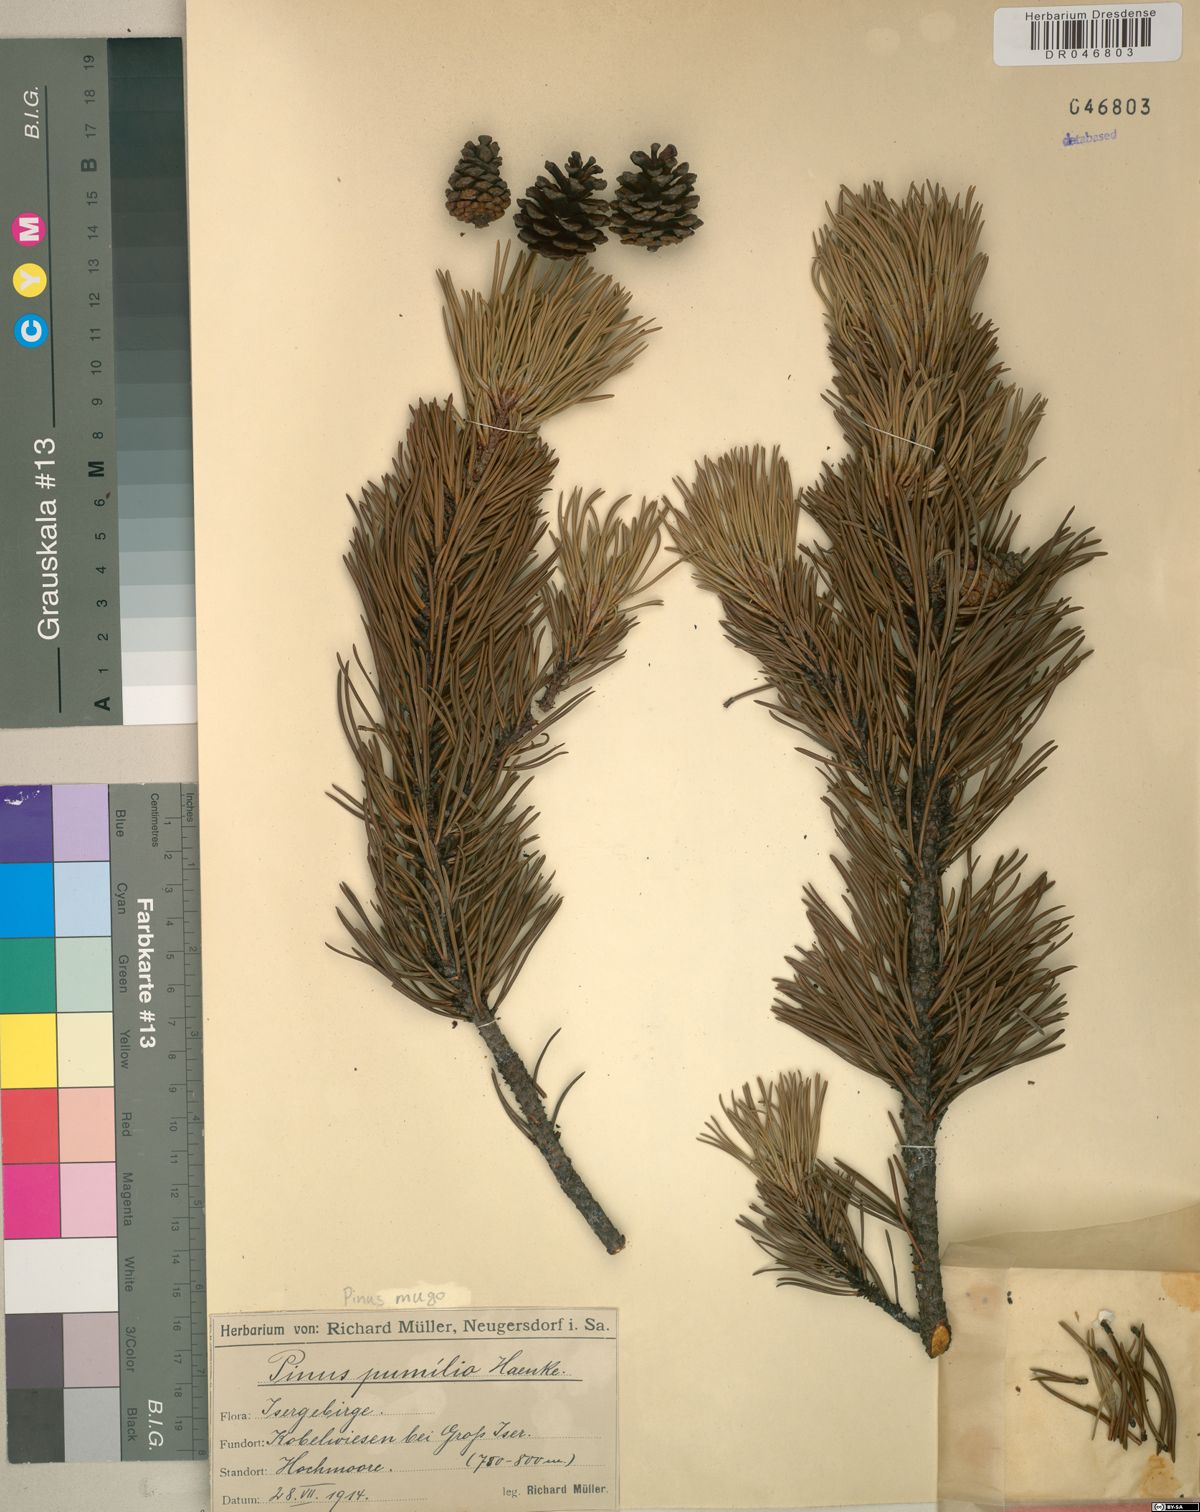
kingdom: Plantae
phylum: Tracheophyta
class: Pinopsida
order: Pinales
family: Pinaceae
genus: Pinus
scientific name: Pinus mugo
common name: Mugo pine
